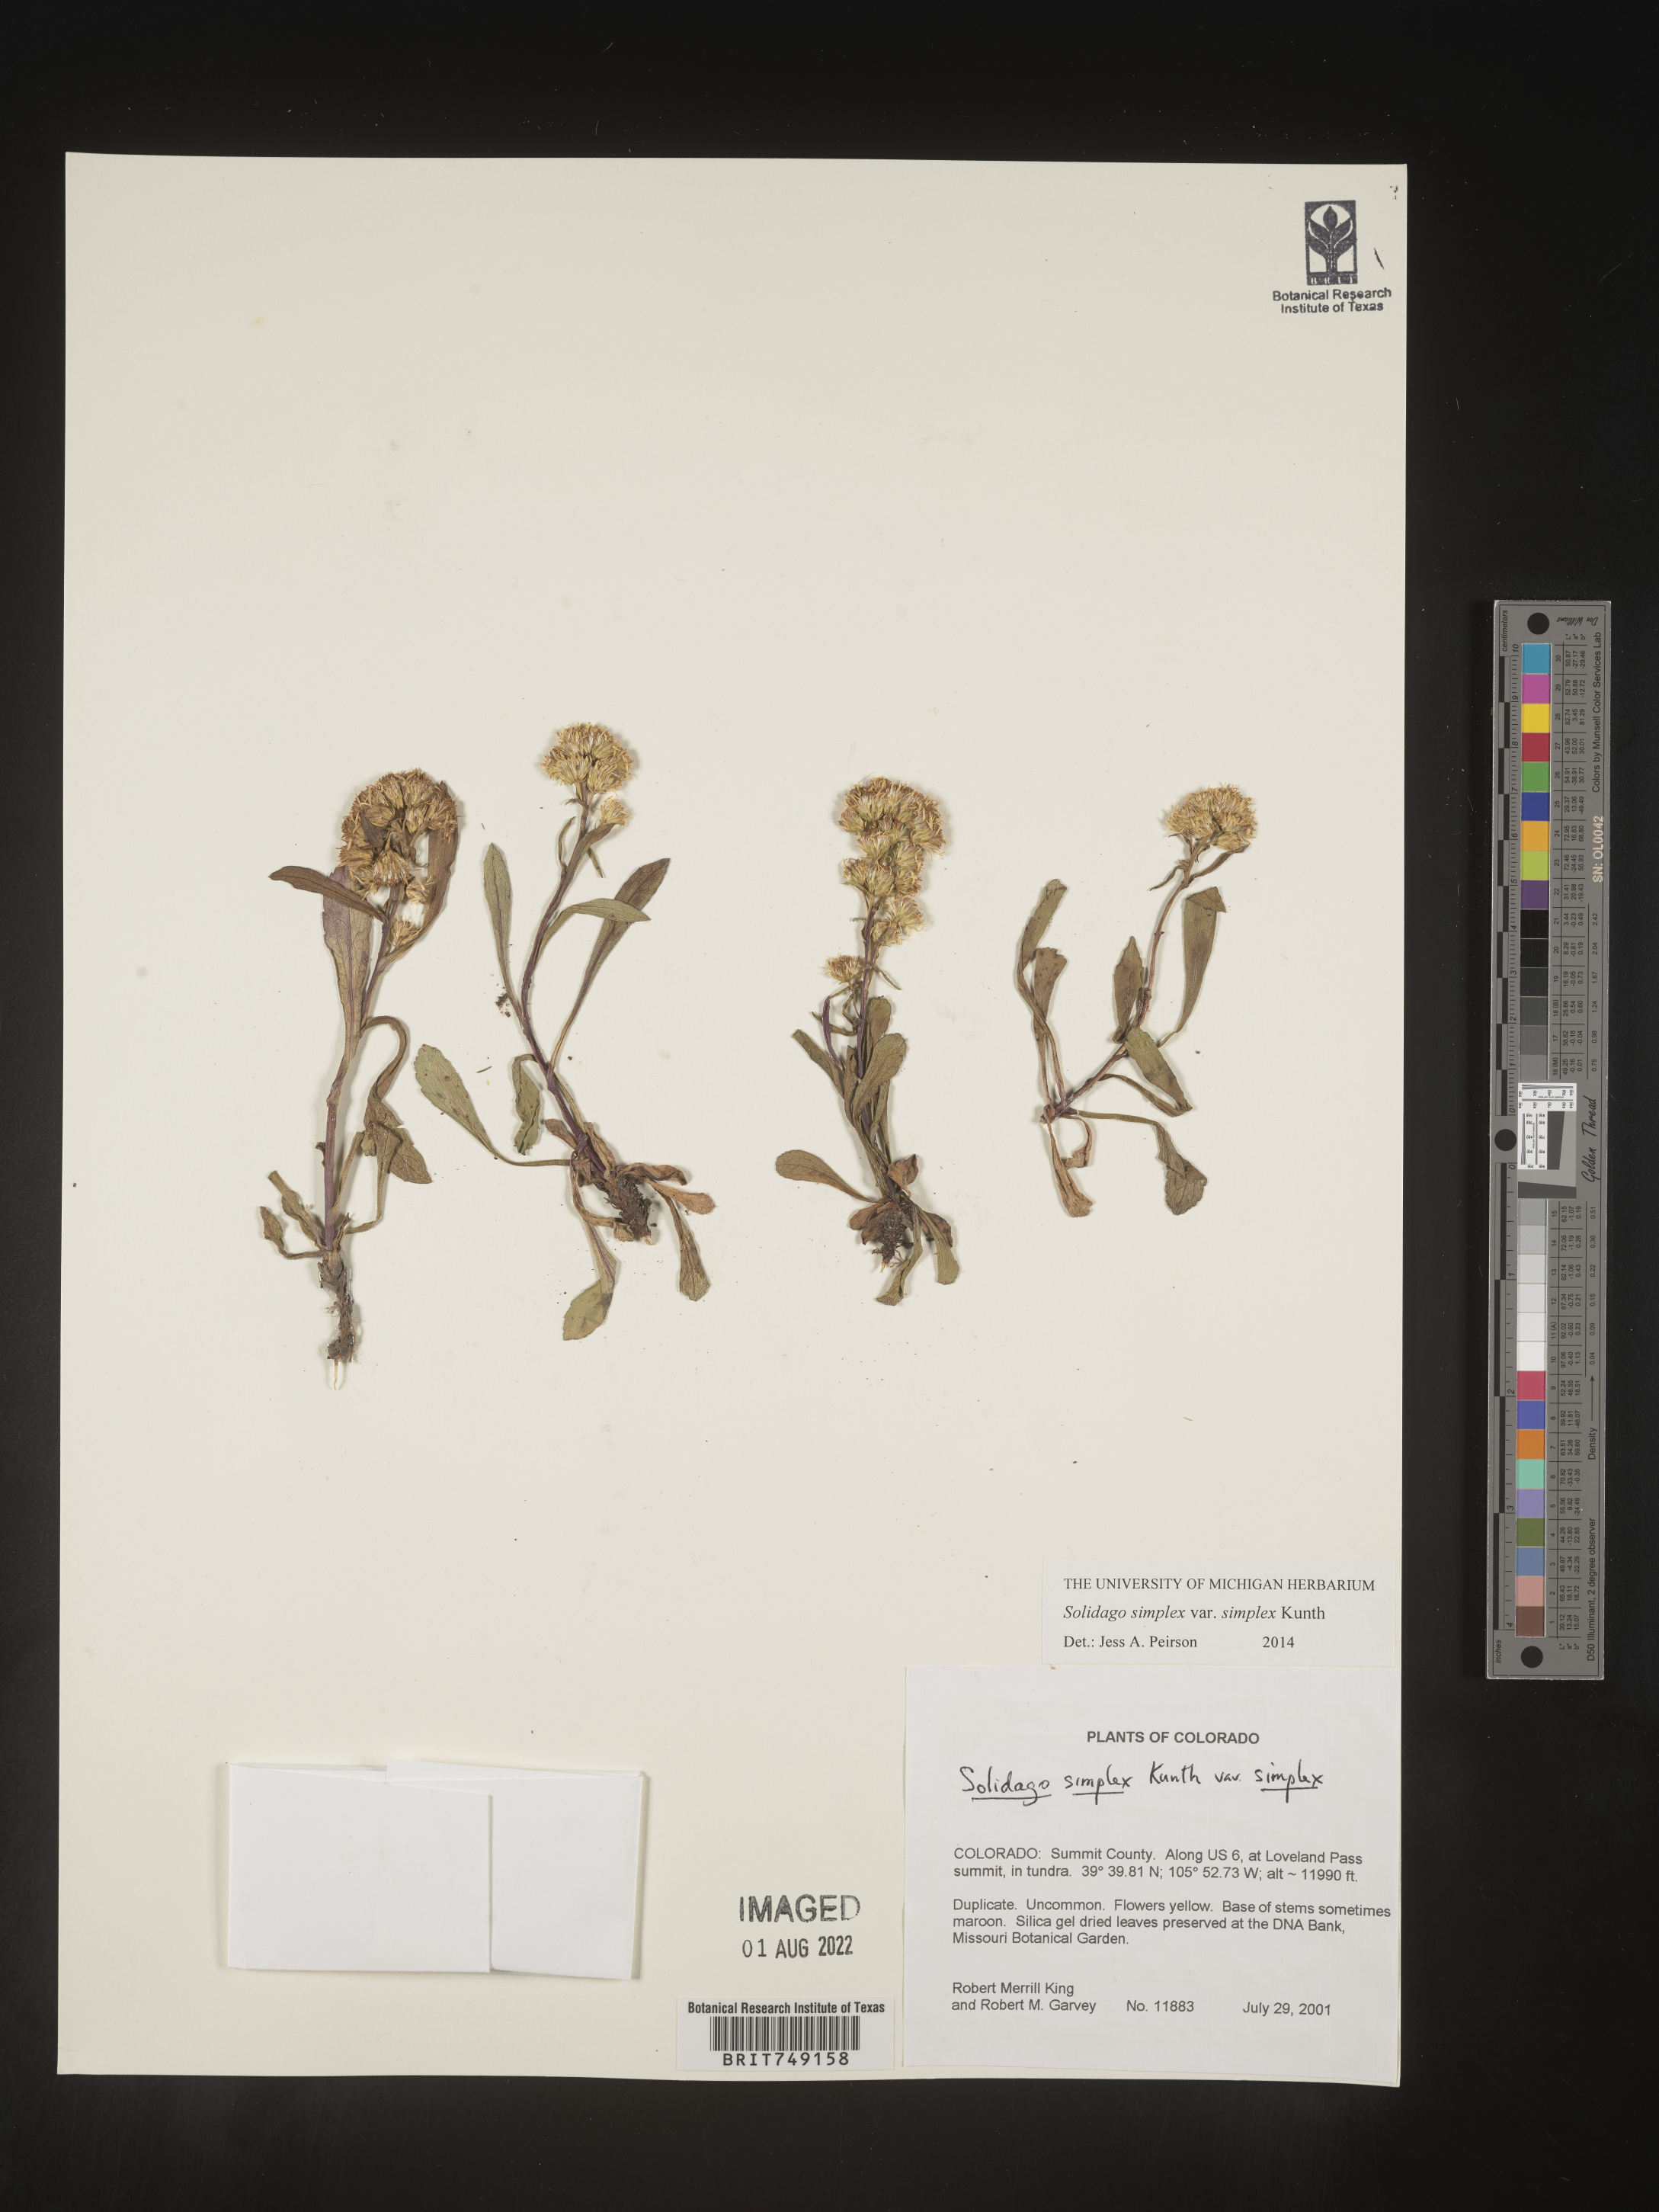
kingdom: Plantae
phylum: Tracheophyta
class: Magnoliopsida
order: Asterales
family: Asteraceae
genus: Solidago
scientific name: Solidago simplex
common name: Sticky goldenrod
